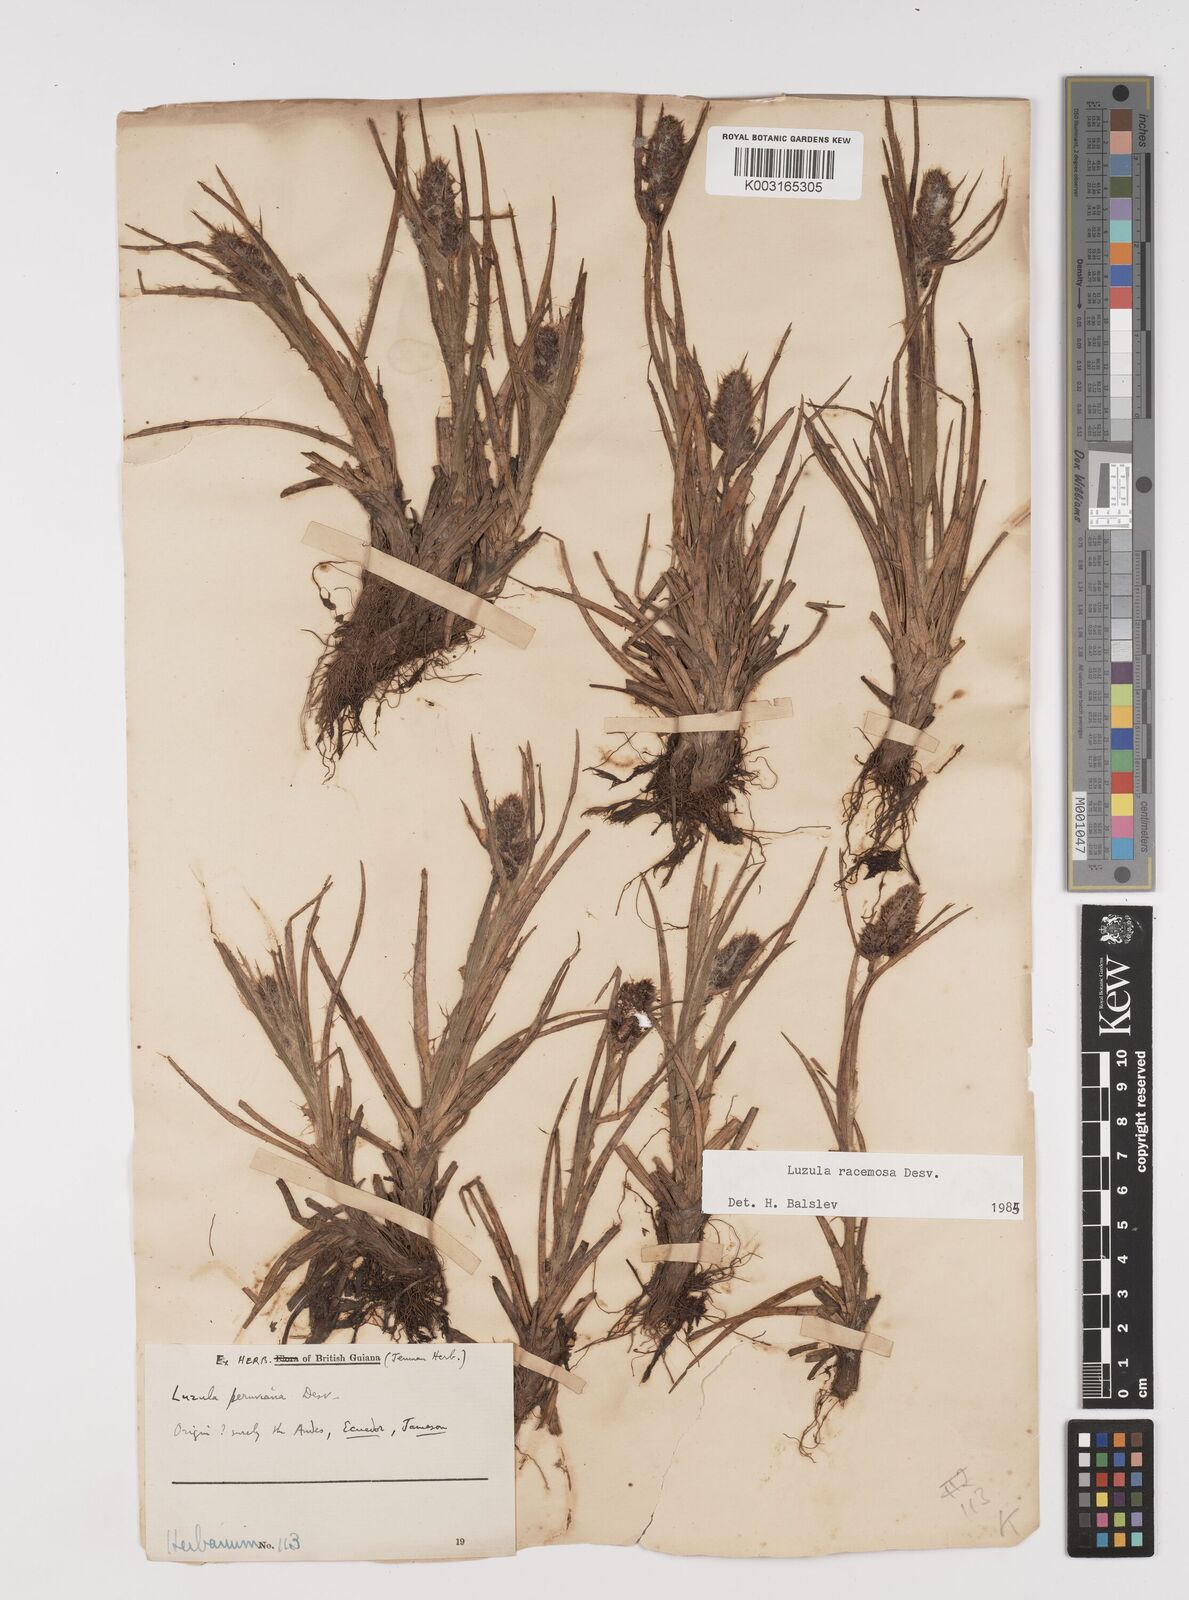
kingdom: Plantae
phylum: Tracheophyta
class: Liliopsida
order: Poales
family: Juncaceae
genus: Luzula
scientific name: Luzula racemosa
